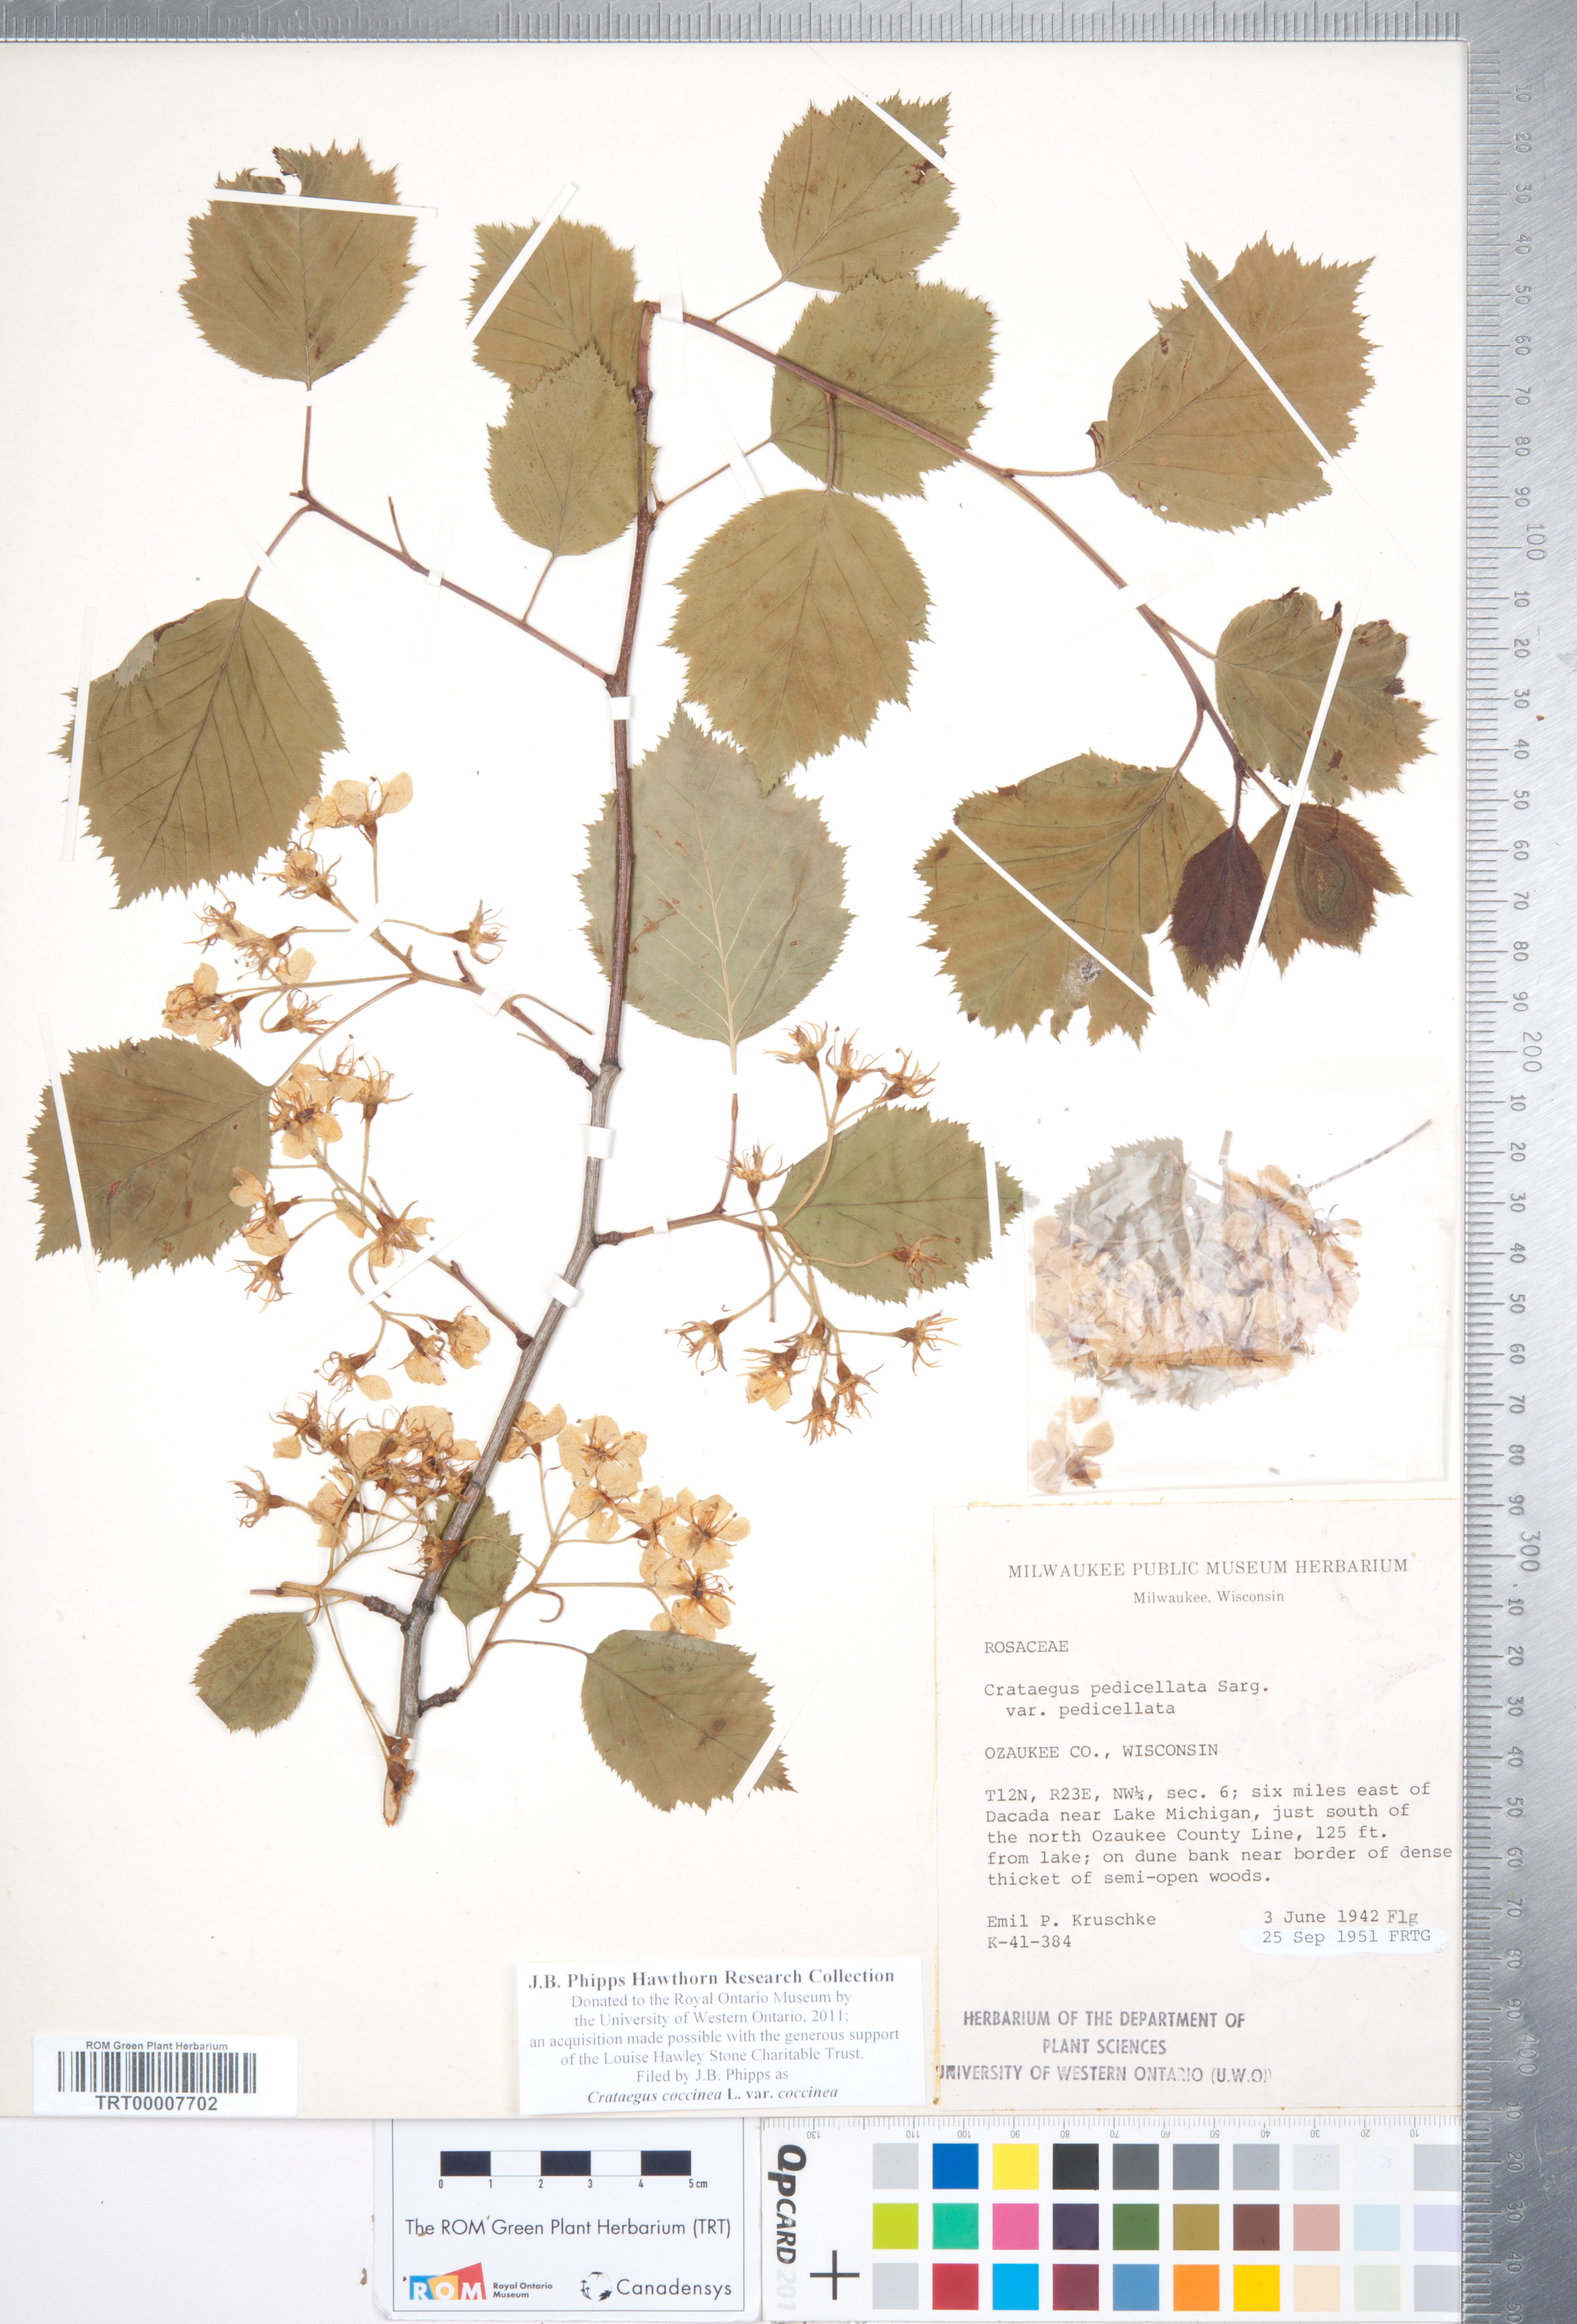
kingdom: Plantae
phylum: Tracheophyta
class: Magnoliopsida
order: Rosales
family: Rosaceae
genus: Crataegus
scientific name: Crataegus coccinea
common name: Scarlet hawthorn
